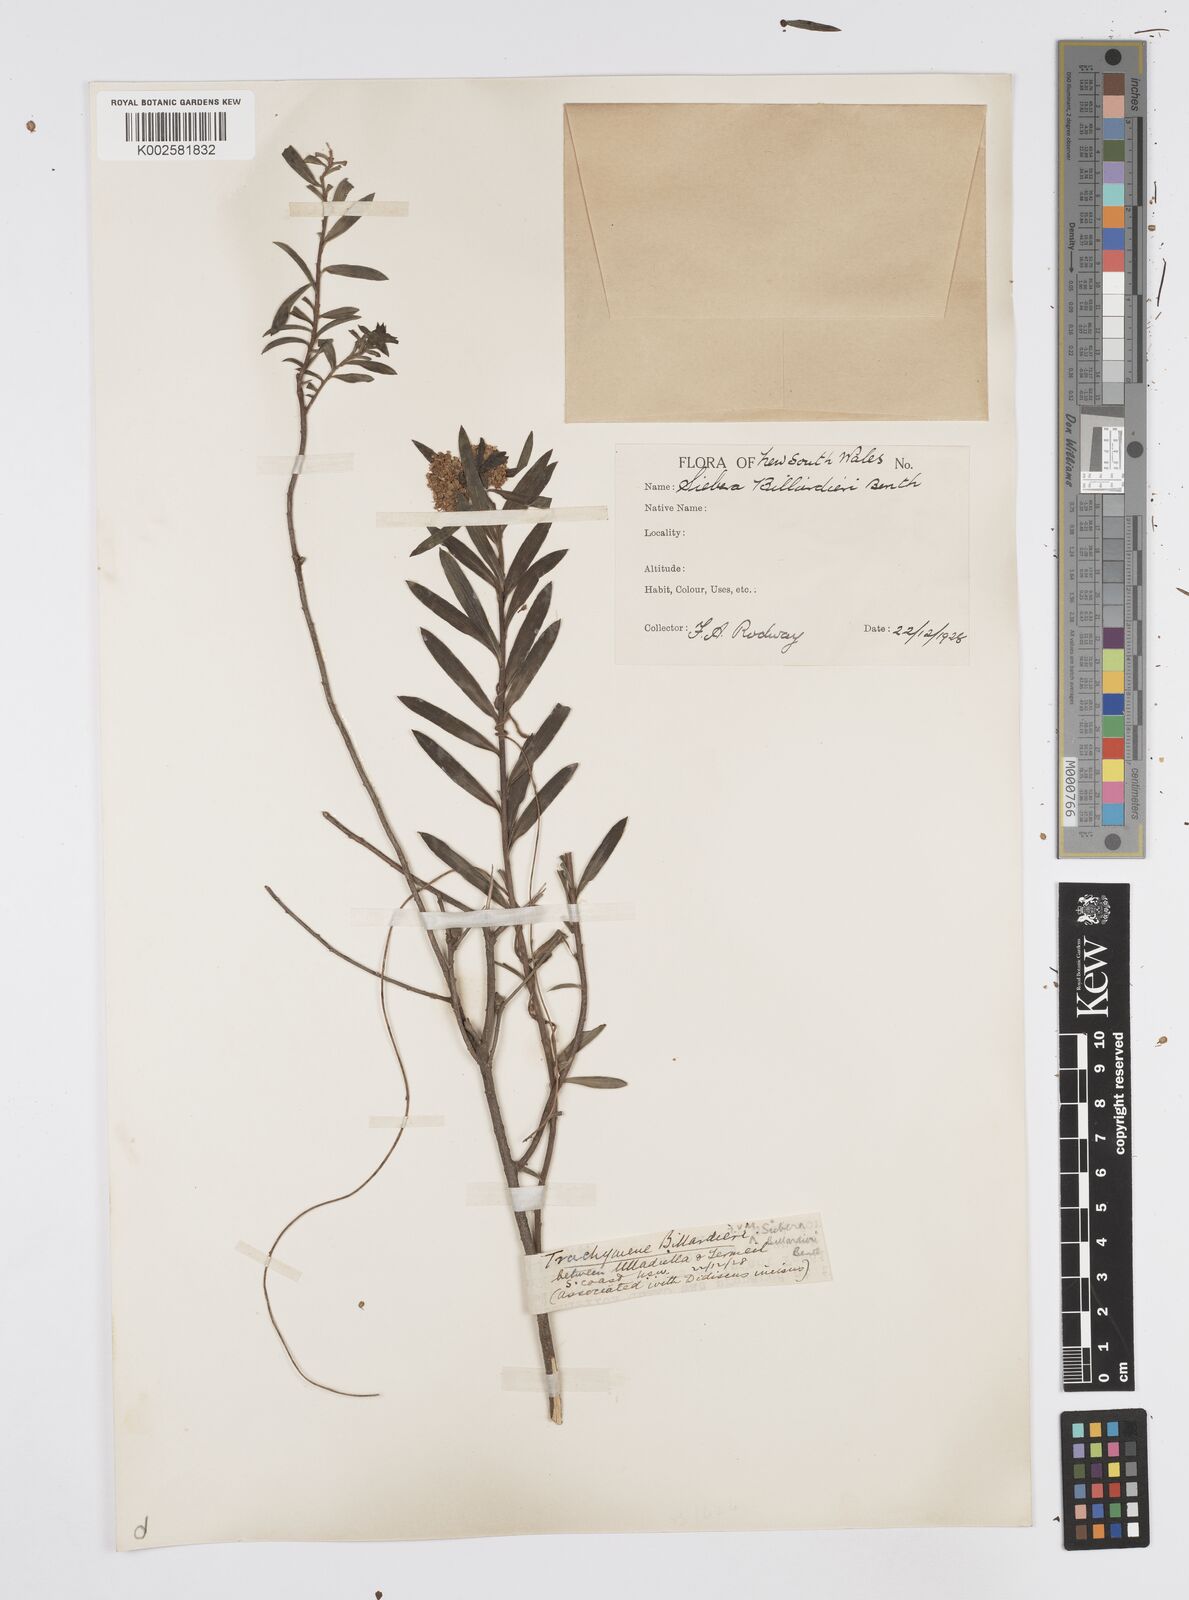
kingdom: Plantae
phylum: Tracheophyta
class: Magnoliopsida
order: Apiales
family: Apiaceae
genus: Platysace
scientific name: Platysace lanceolata
